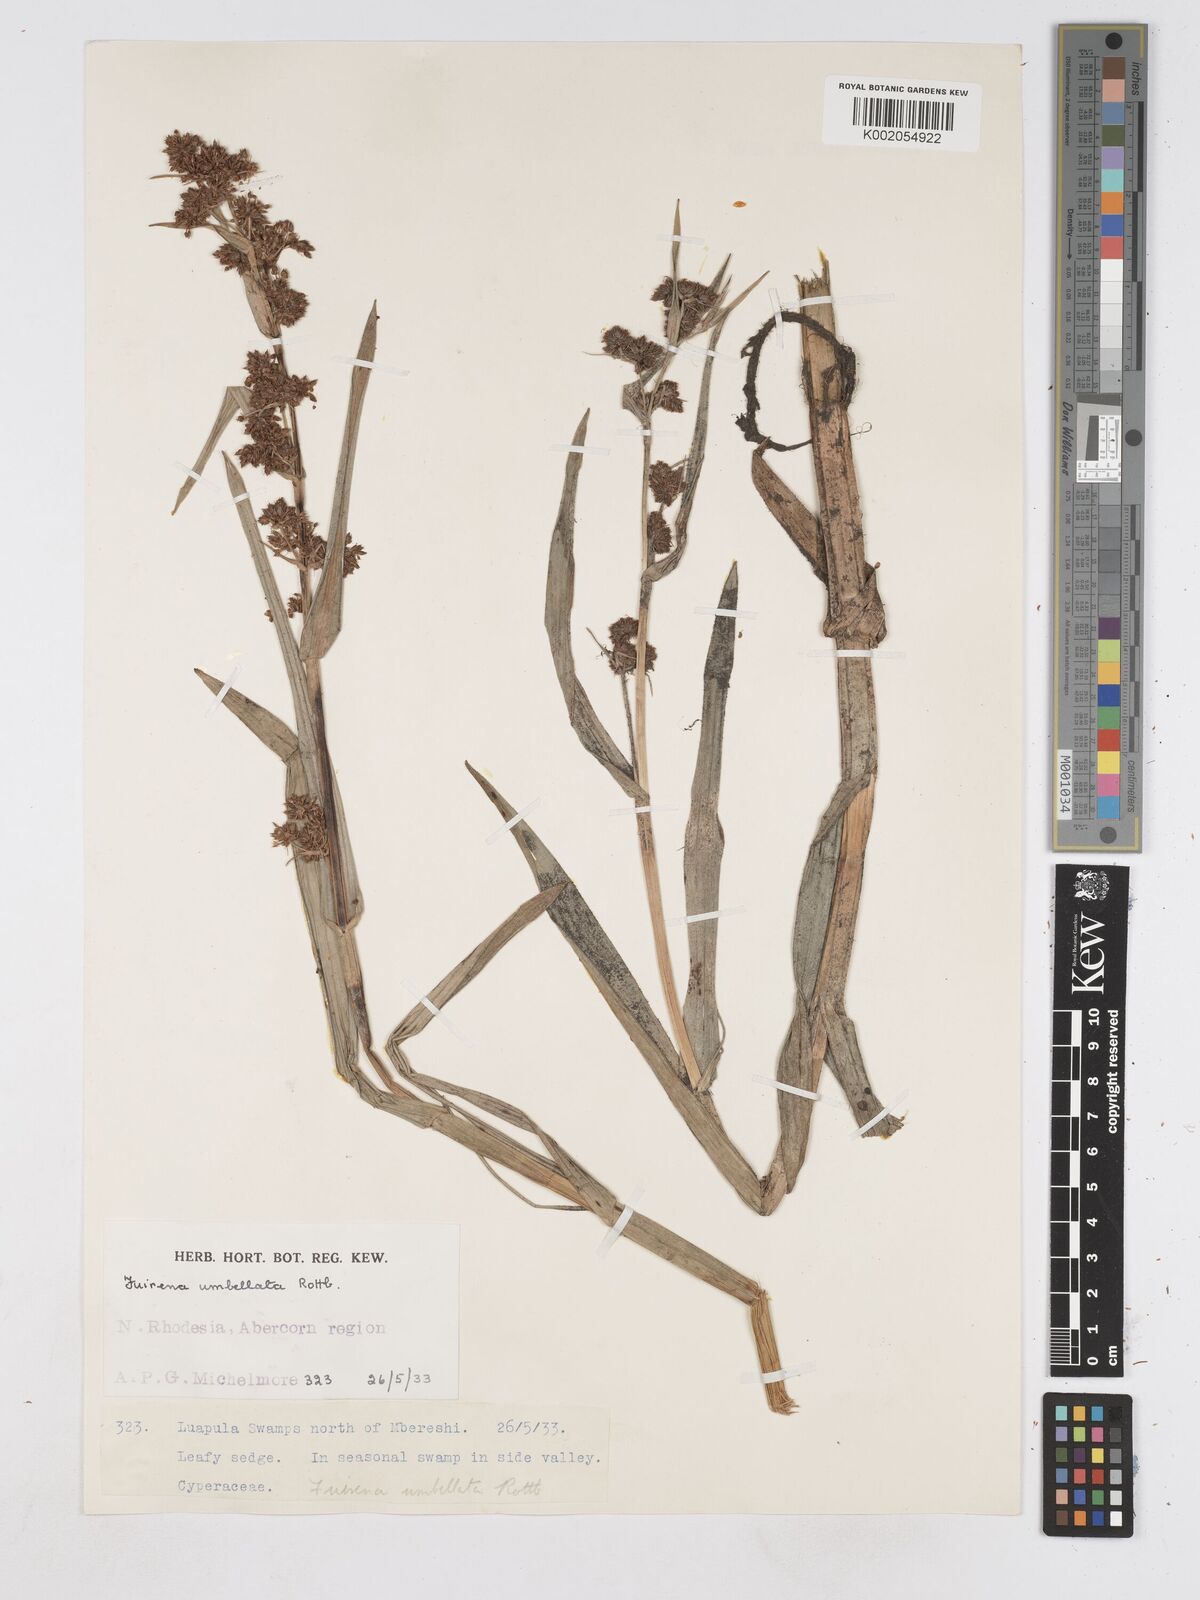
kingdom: Plantae
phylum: Tracheophyta
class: Liliopsida
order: Poales
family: Cyperaceae
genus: Fuirena
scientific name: Fuirena umbellata
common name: Yefen
